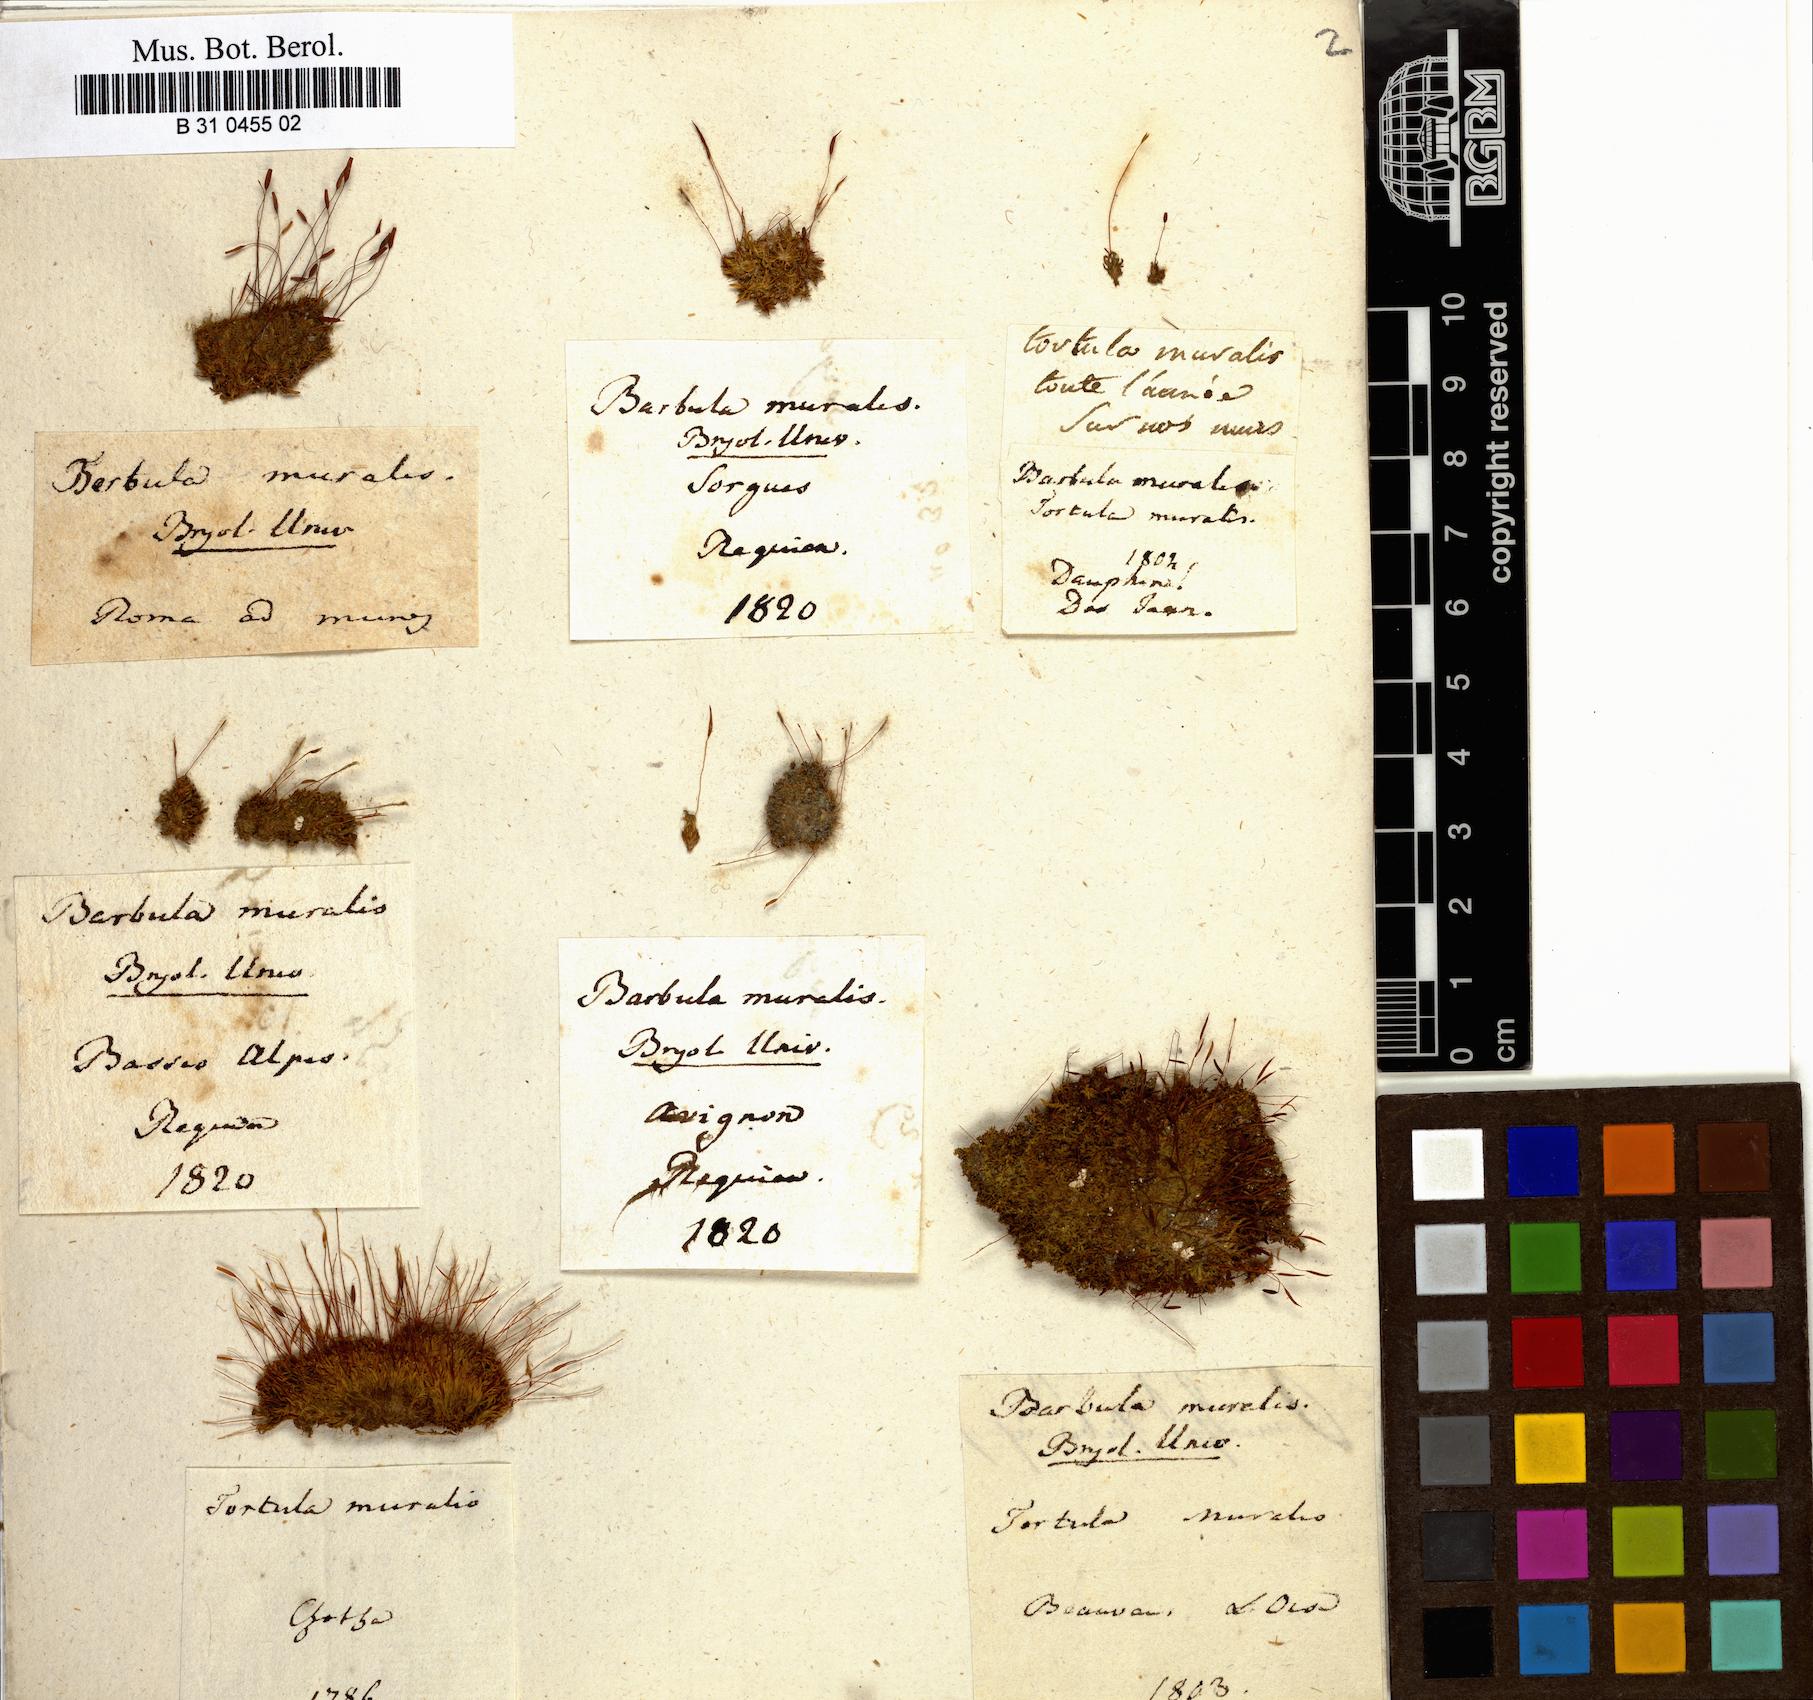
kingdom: Plantae
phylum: Bryophyta
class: Bryopsida
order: Pottiales
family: Pottiaceae
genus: Tortula
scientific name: Tortula muralis
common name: Wall screw-moss
